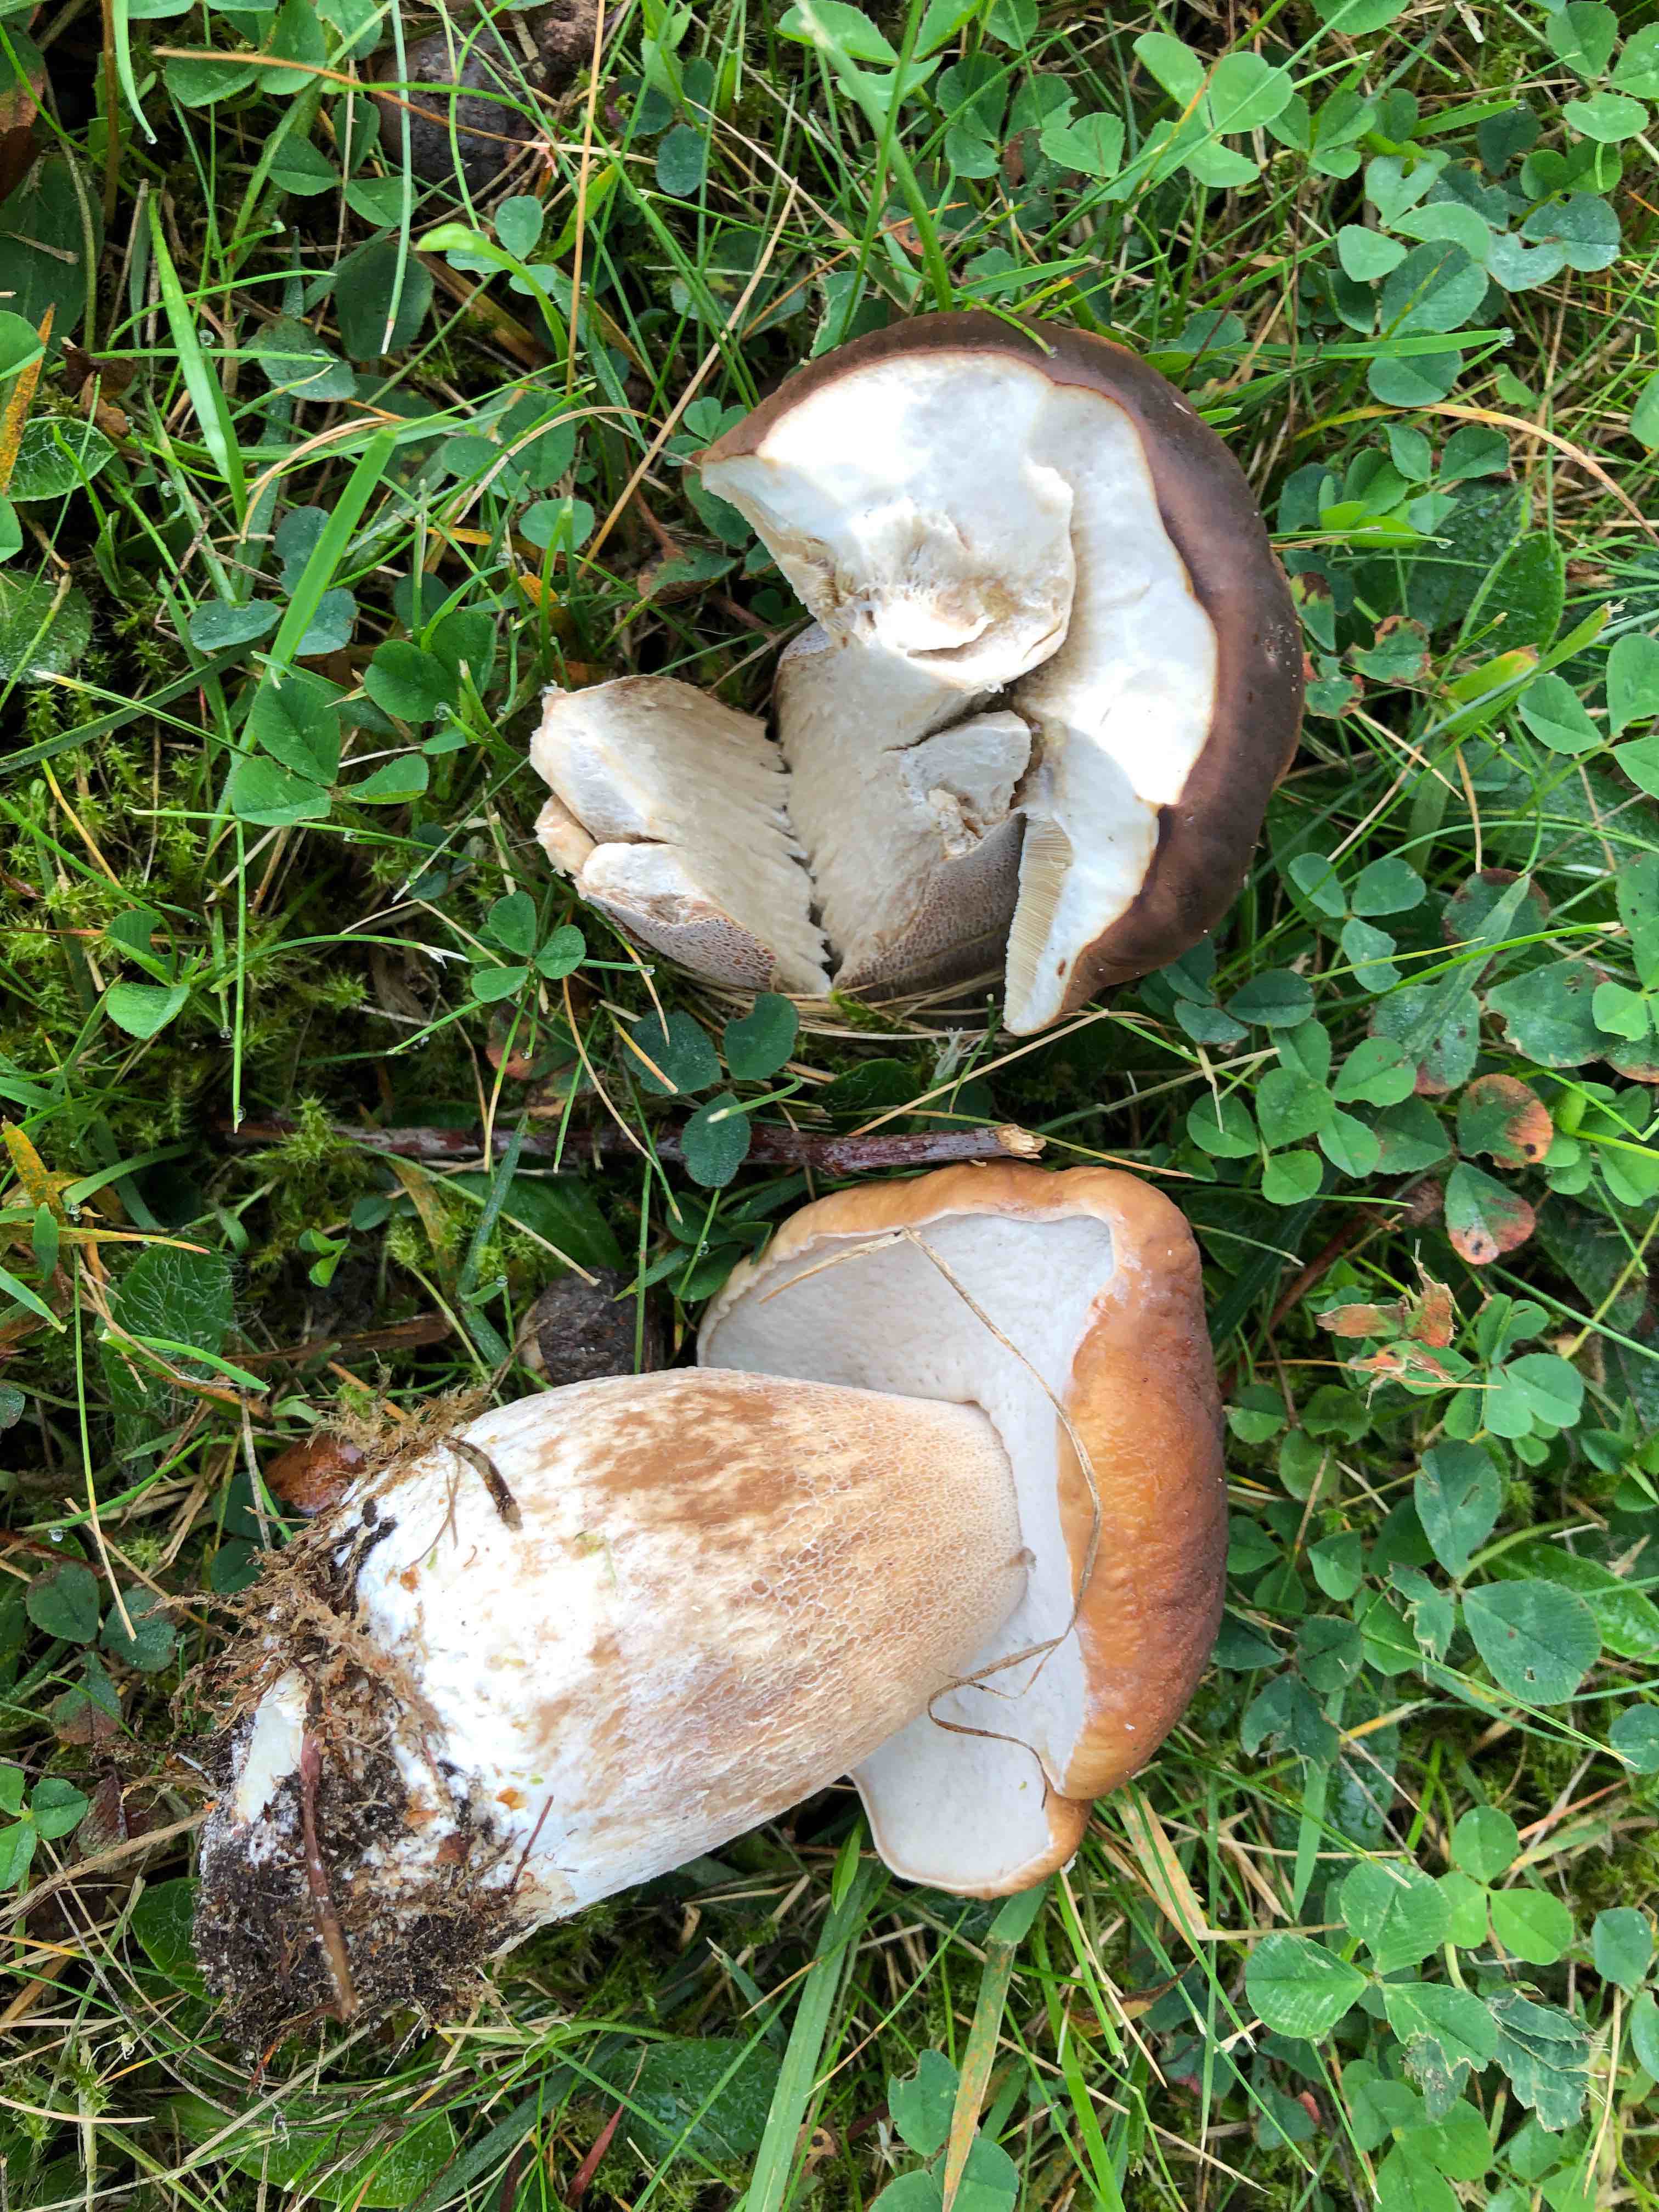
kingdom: Fungi
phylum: Basidiomycota
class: Agaricomycetes
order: Boletales
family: Boletaceae
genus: Boletus
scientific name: Boletus edulis
